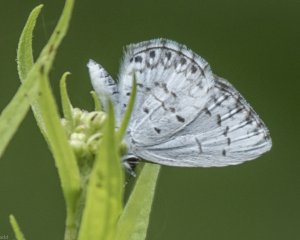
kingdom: Animalia
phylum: Arthropoda
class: Insecta
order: Lepidoptera
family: Lycaenidae
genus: Cyaniris
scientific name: Cyaniris neglecta
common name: Summer Azure
